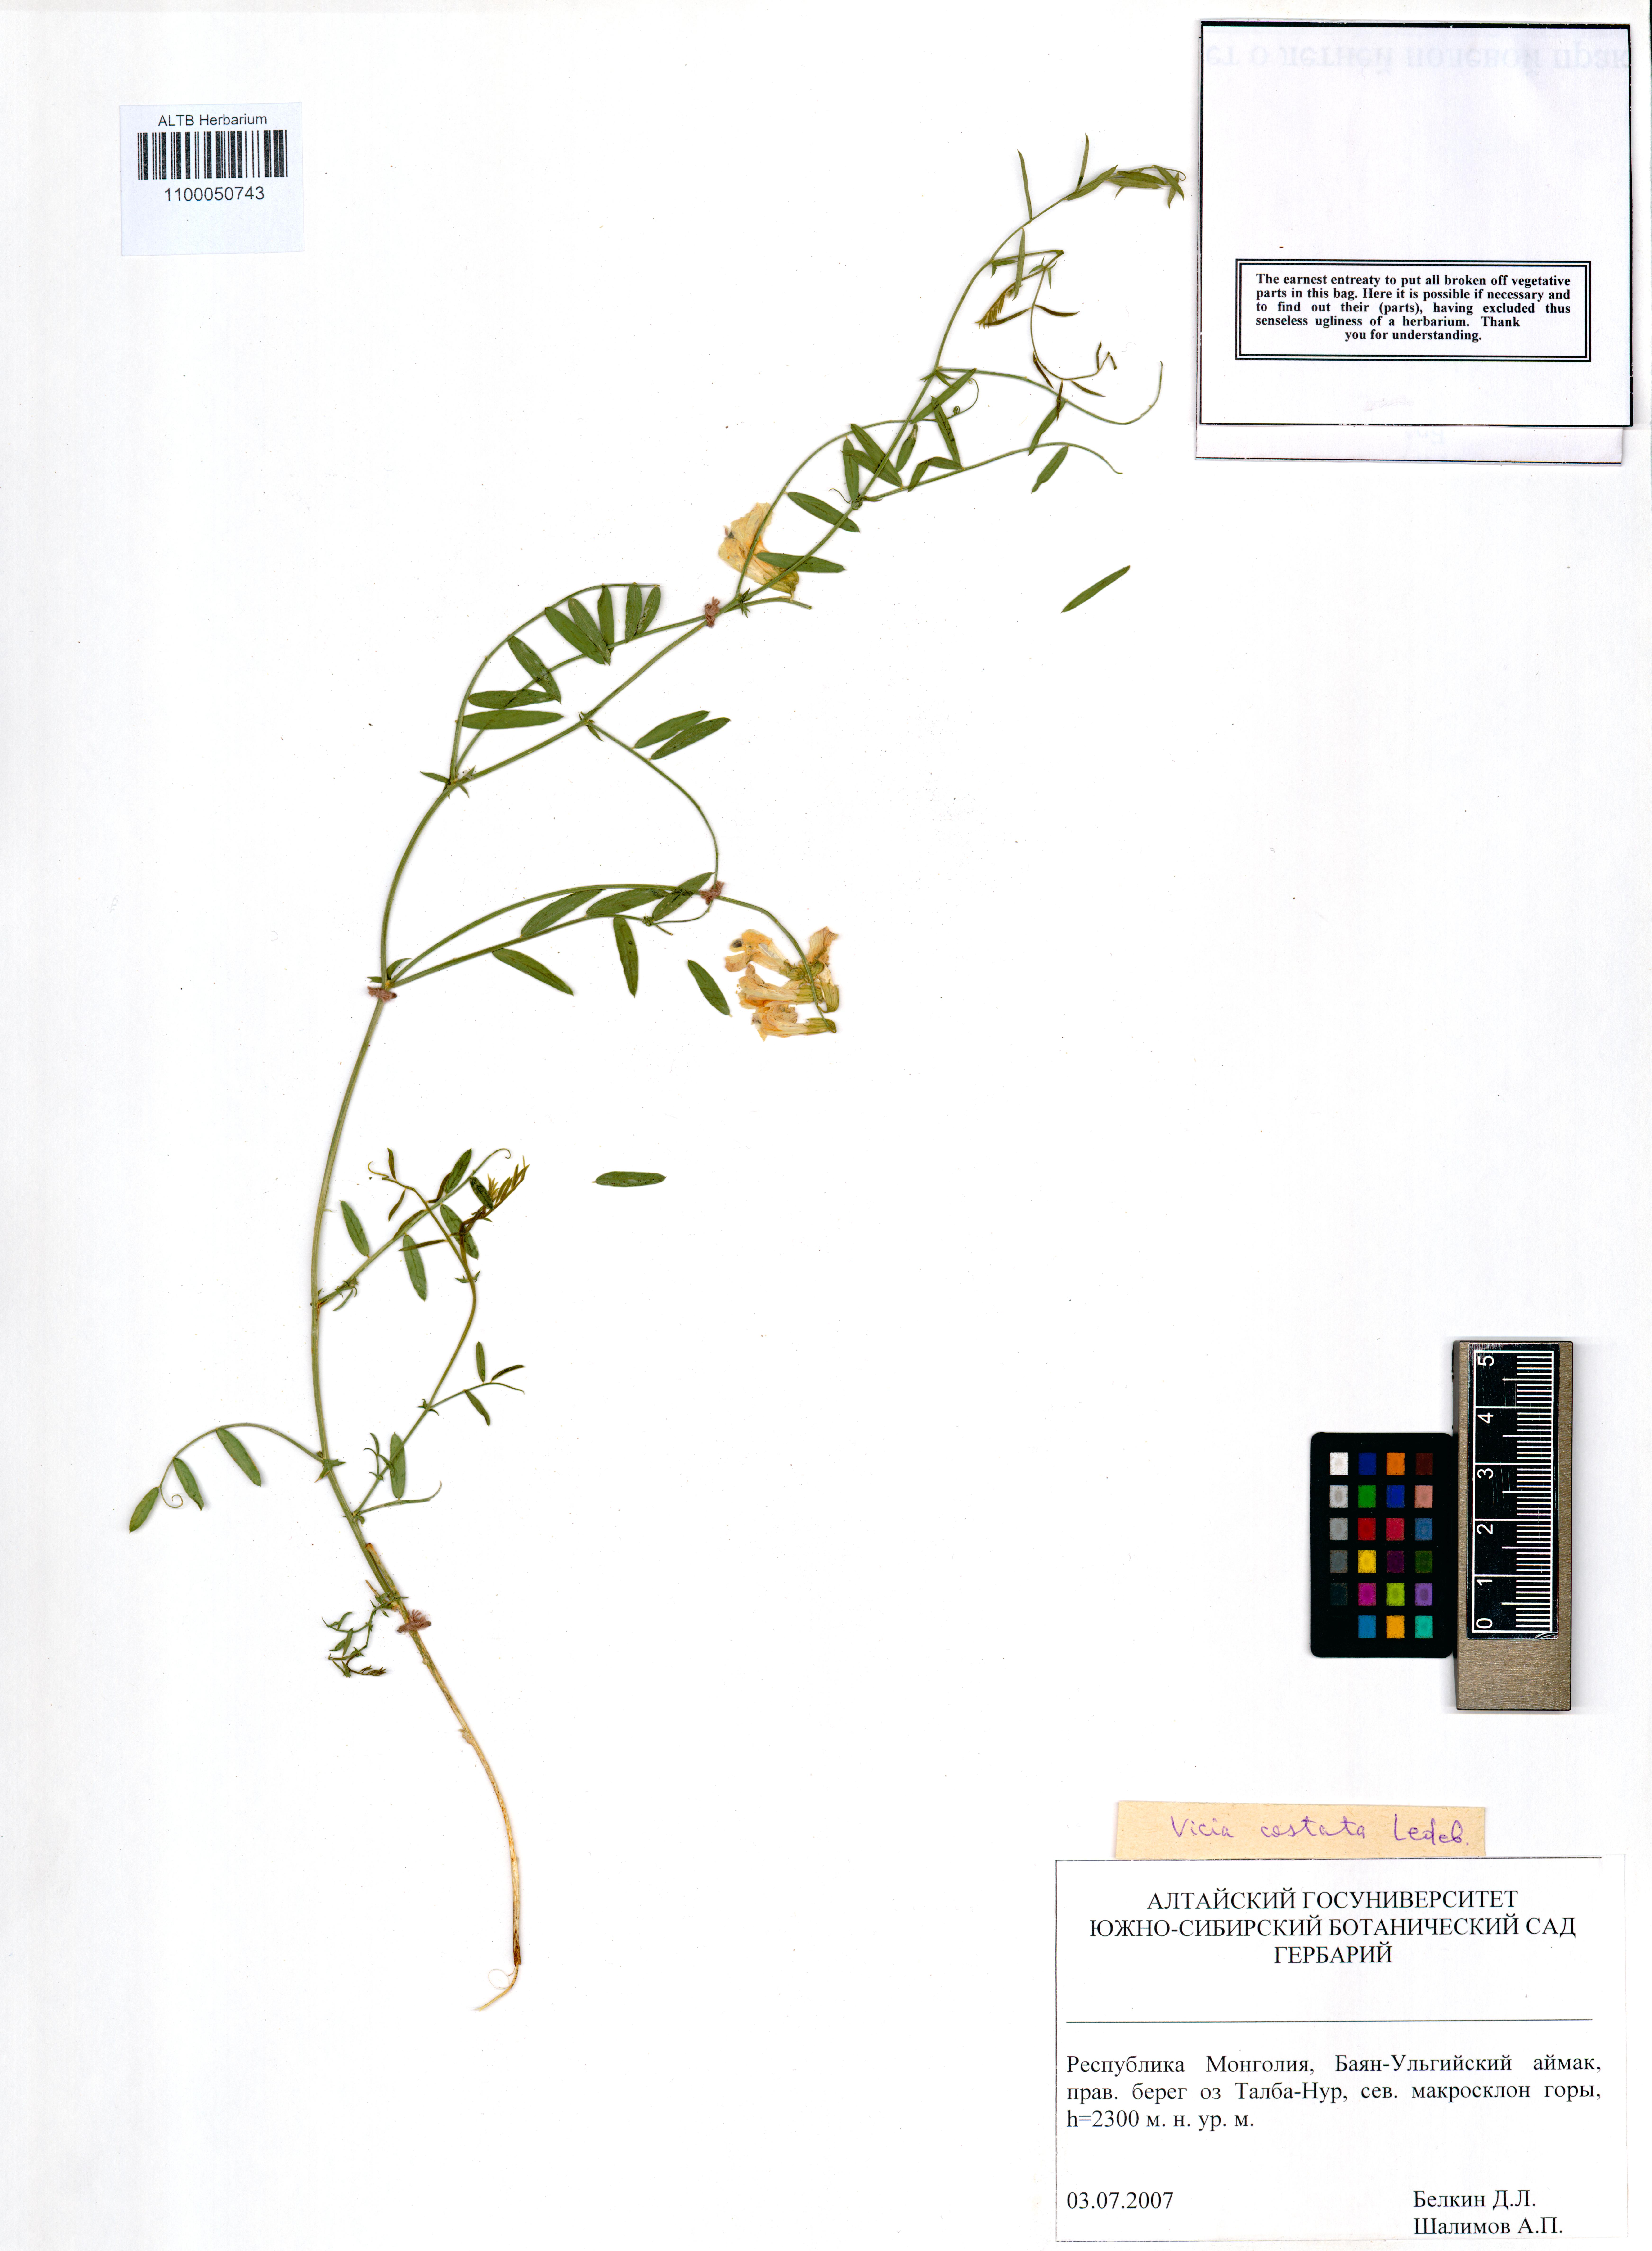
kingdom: Plantae
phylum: Tracheophyta
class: Magnoliopsida
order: Fabales
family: Fabaceae
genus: Vicia
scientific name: Vicia costata
